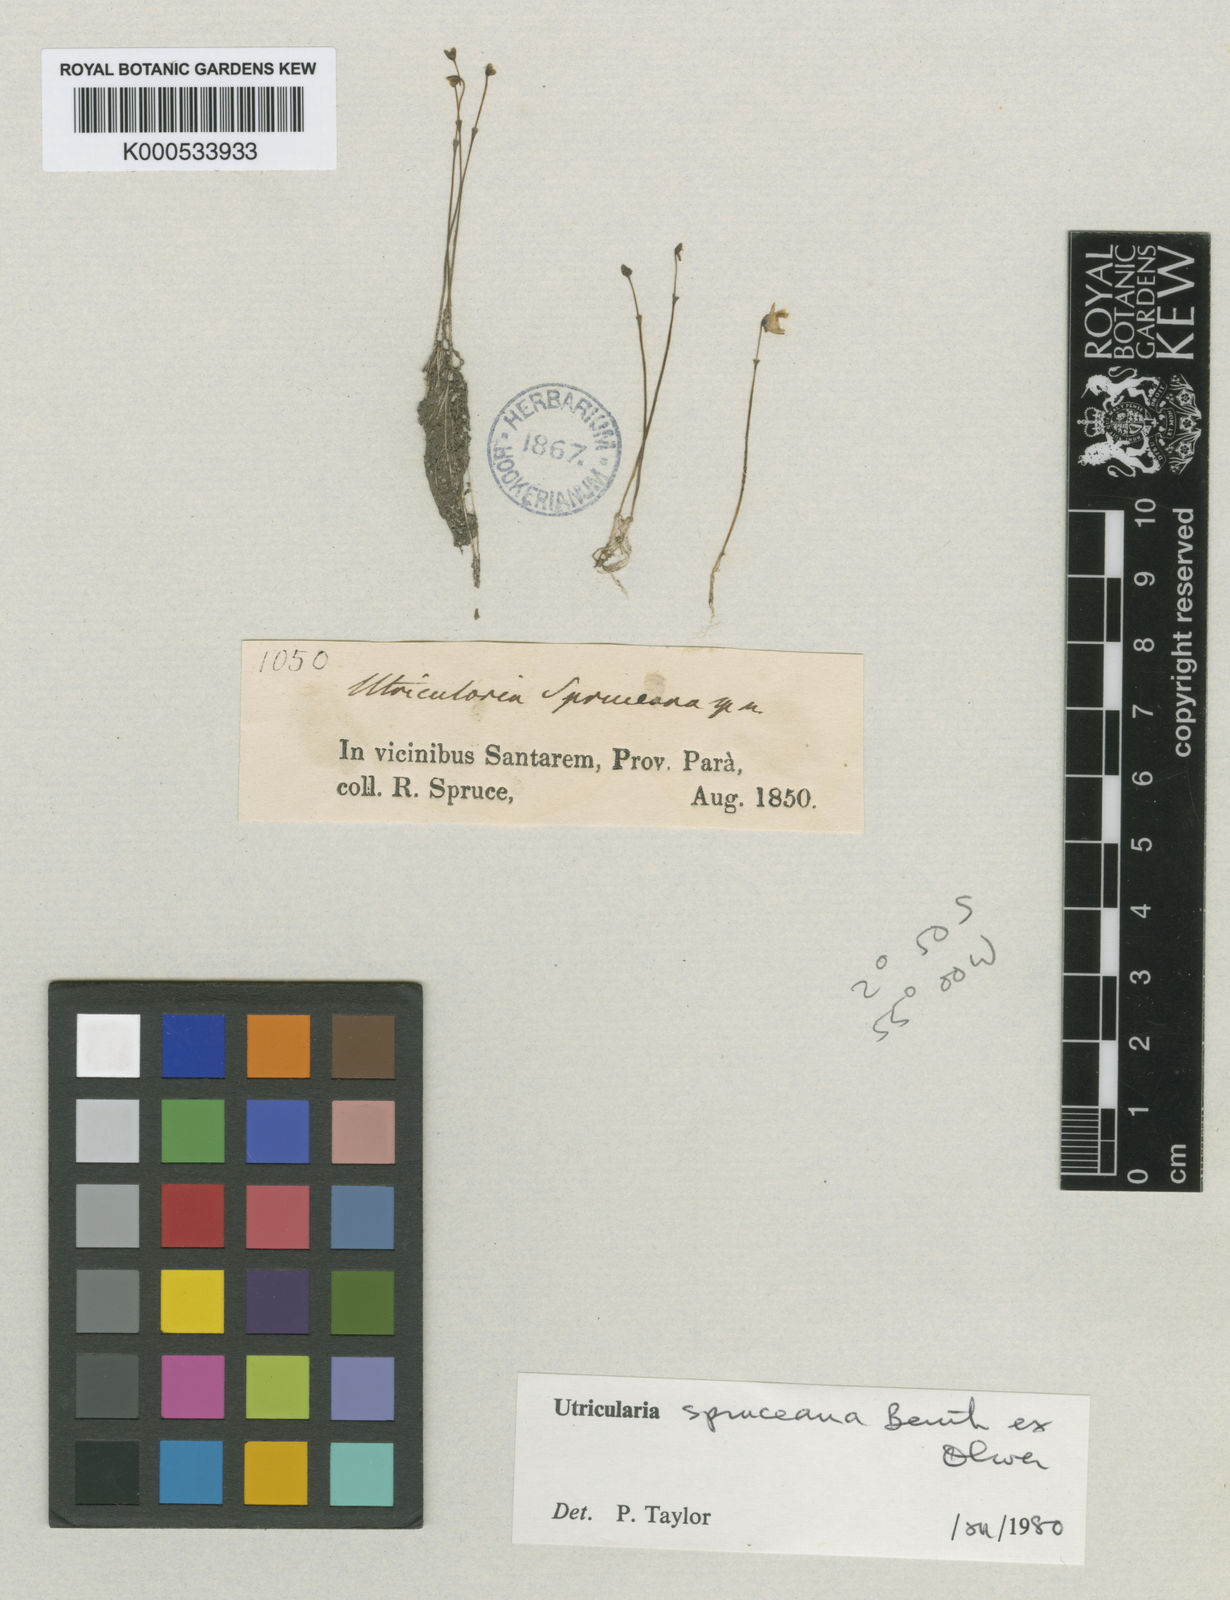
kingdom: Plantae
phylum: Tracheophyta
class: Magnoliopsida
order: Lamiales
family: Lentibulariaceae
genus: Utricularia
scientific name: Utricularia trichophylla
